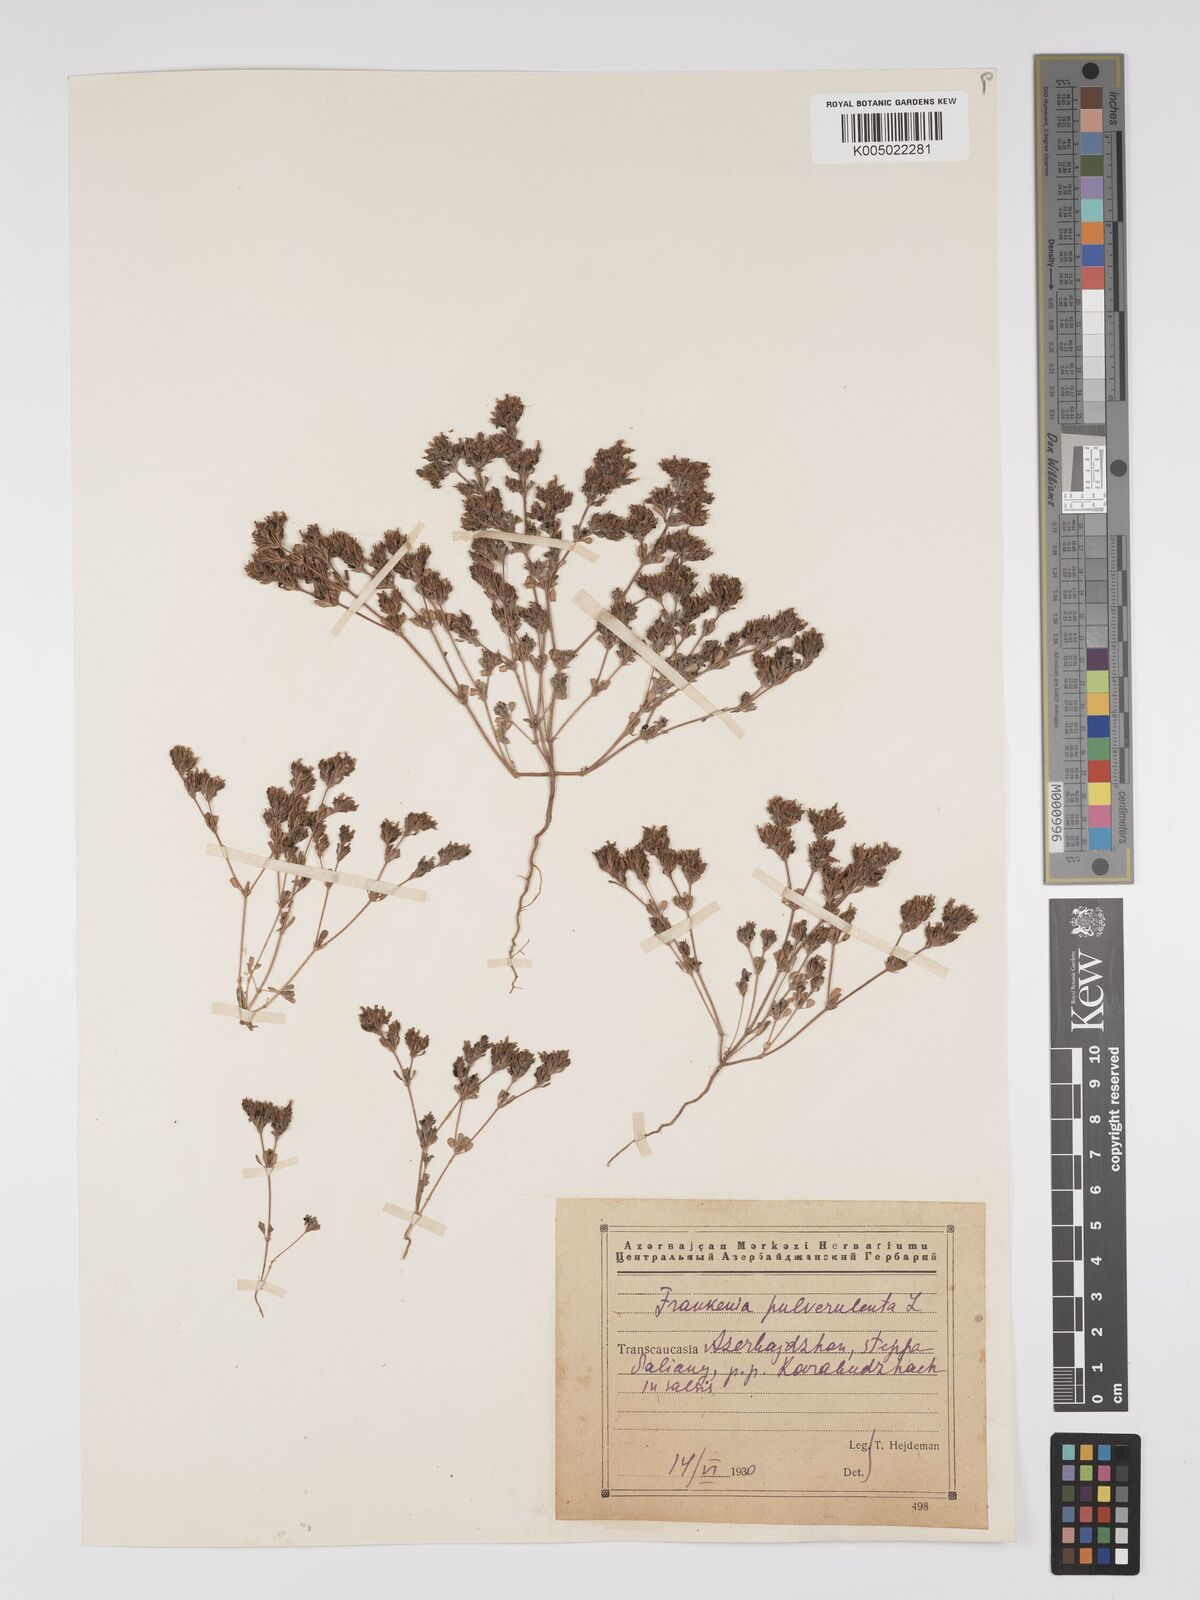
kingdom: Plantae
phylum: Tracheophyta
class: Magnoliopsida
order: Caryophyllales
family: Frankeniaceae
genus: Frankenia
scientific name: Frankenia pulverulenta
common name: European seaheath
